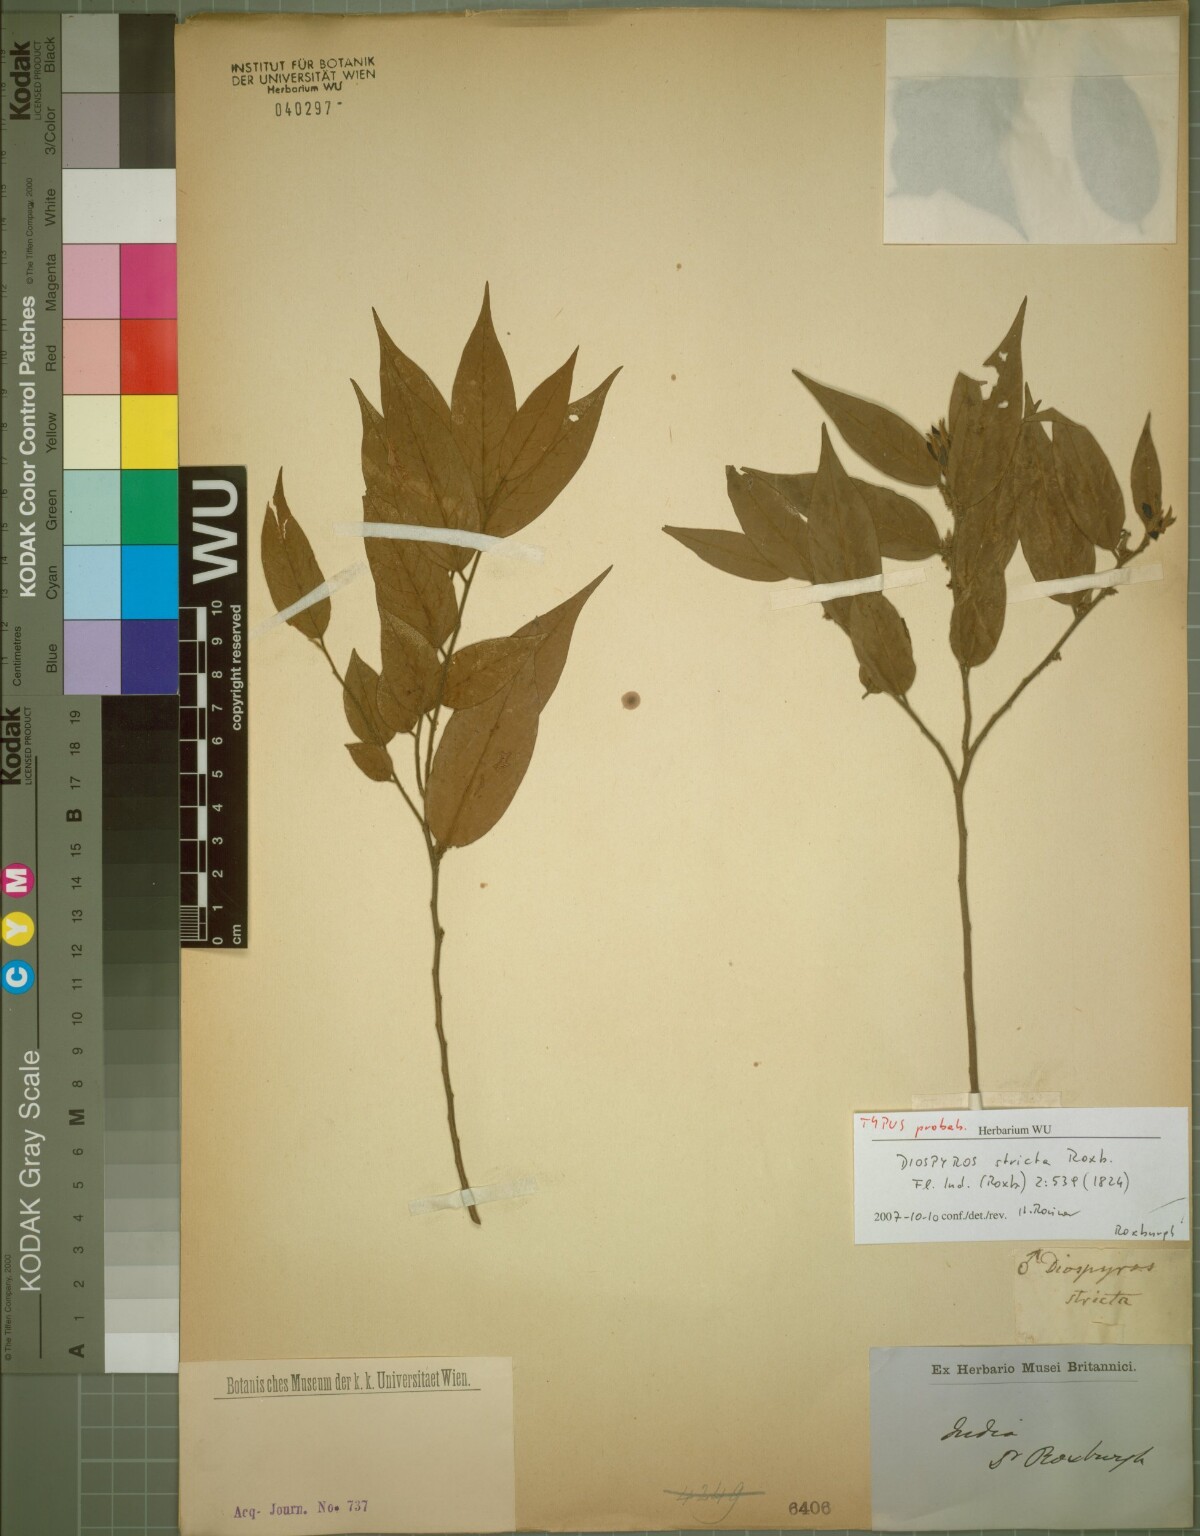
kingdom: Plantae
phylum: Tracheophyta
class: Magnoliopsida
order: Ericales
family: Ebenaceae
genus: Diospyros
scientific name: Diospyros stricta
